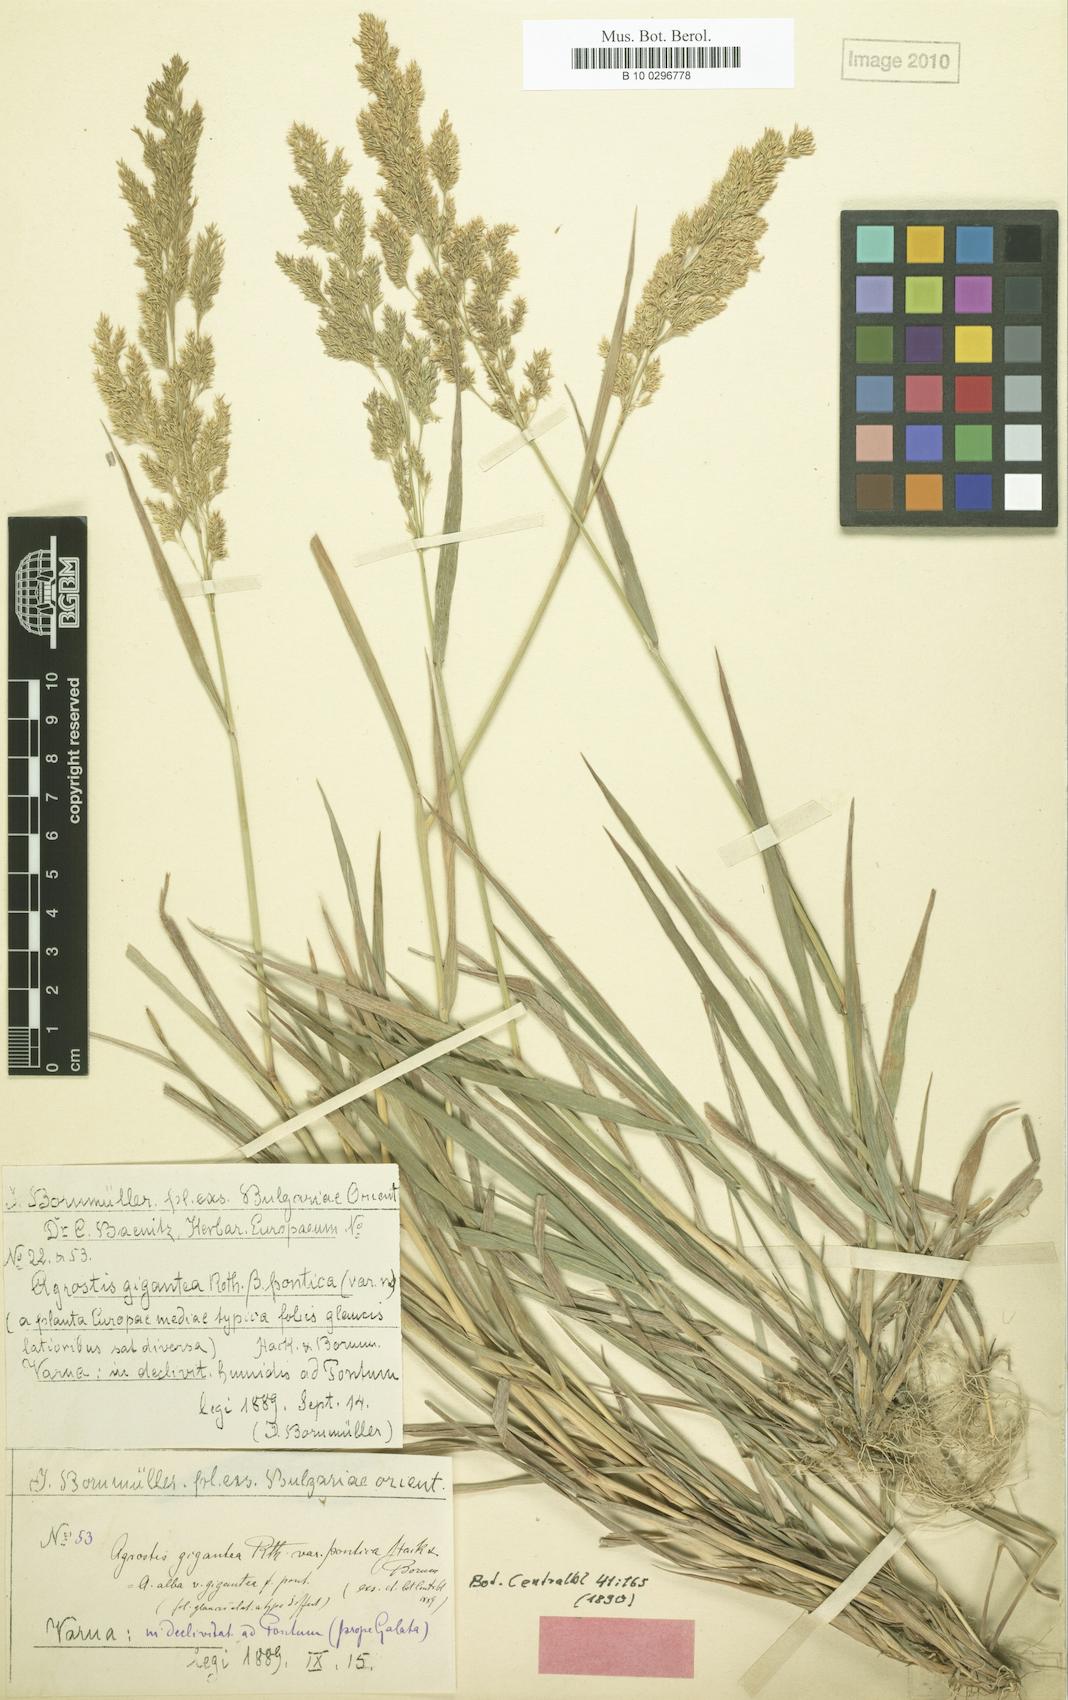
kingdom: Plantae
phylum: Tracheophyta
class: Liliopsida
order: Poales
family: Poaceae
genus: Agrostis
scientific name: Agrostis gigantea
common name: Black bent
